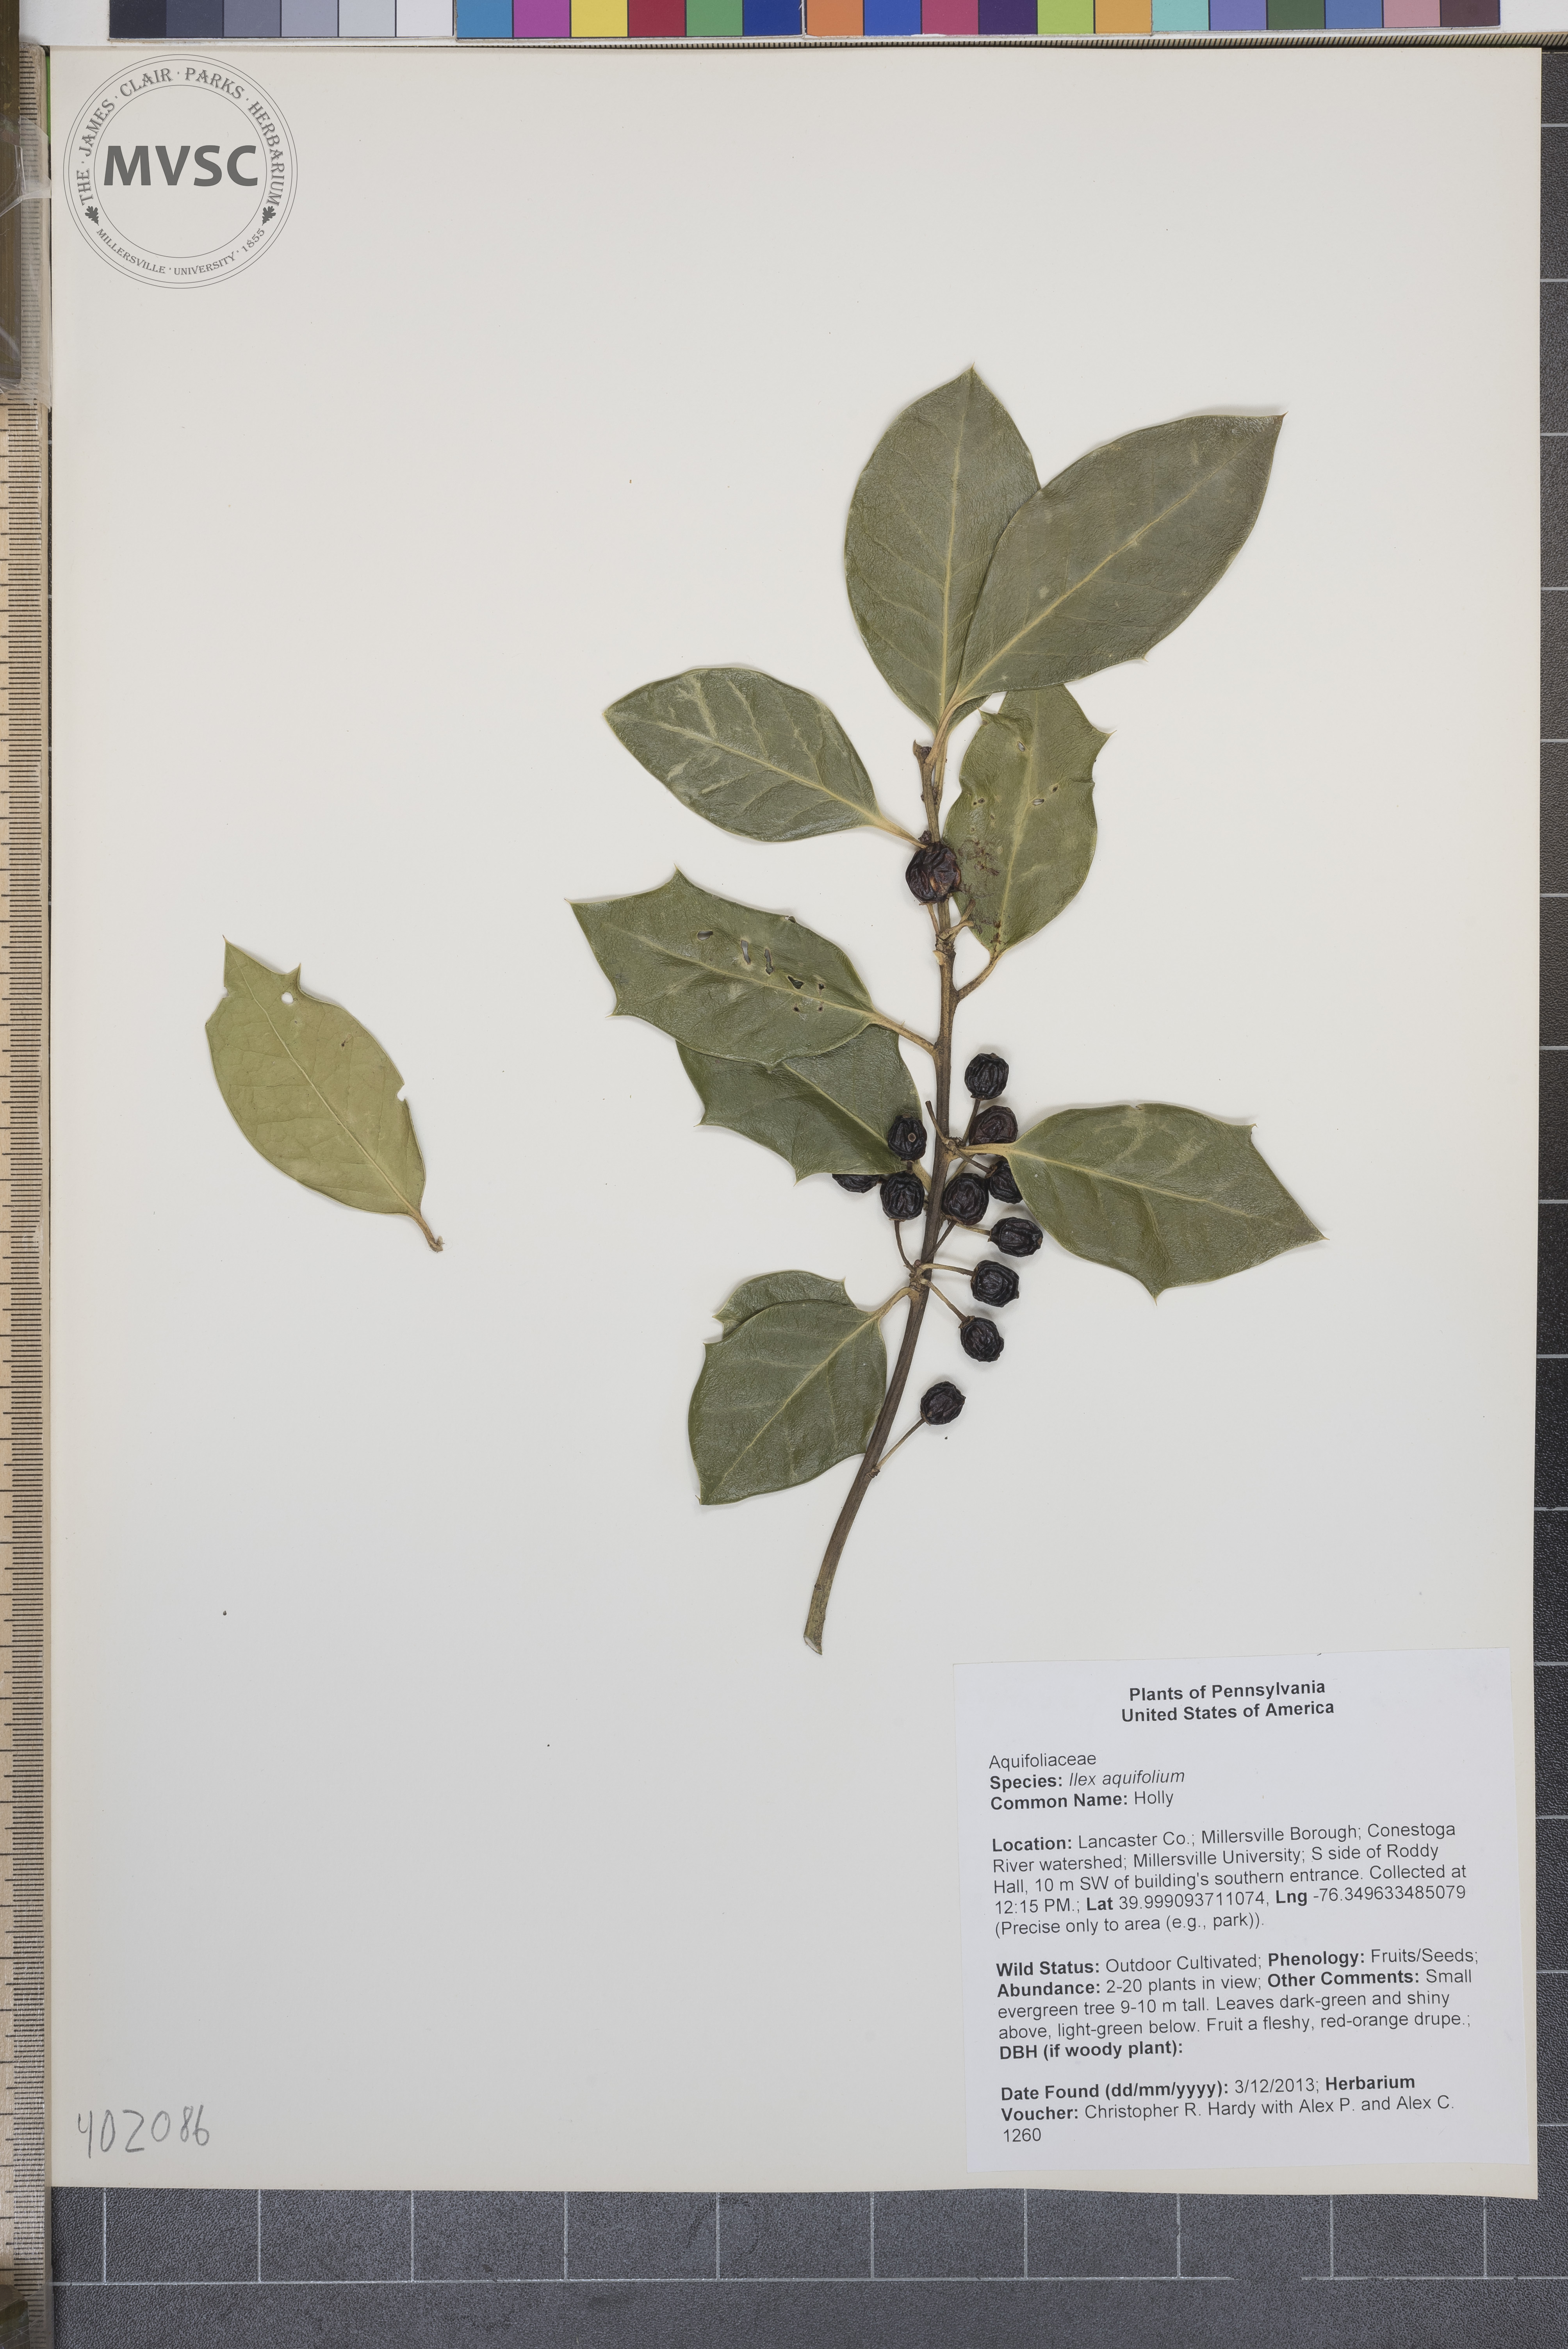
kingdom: Plantae
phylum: Tracheophyta
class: Magnoliopsida
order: Aquifoliales
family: Aquifoliaceae
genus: Ilex
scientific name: Ilex aquifolium
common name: Holly
